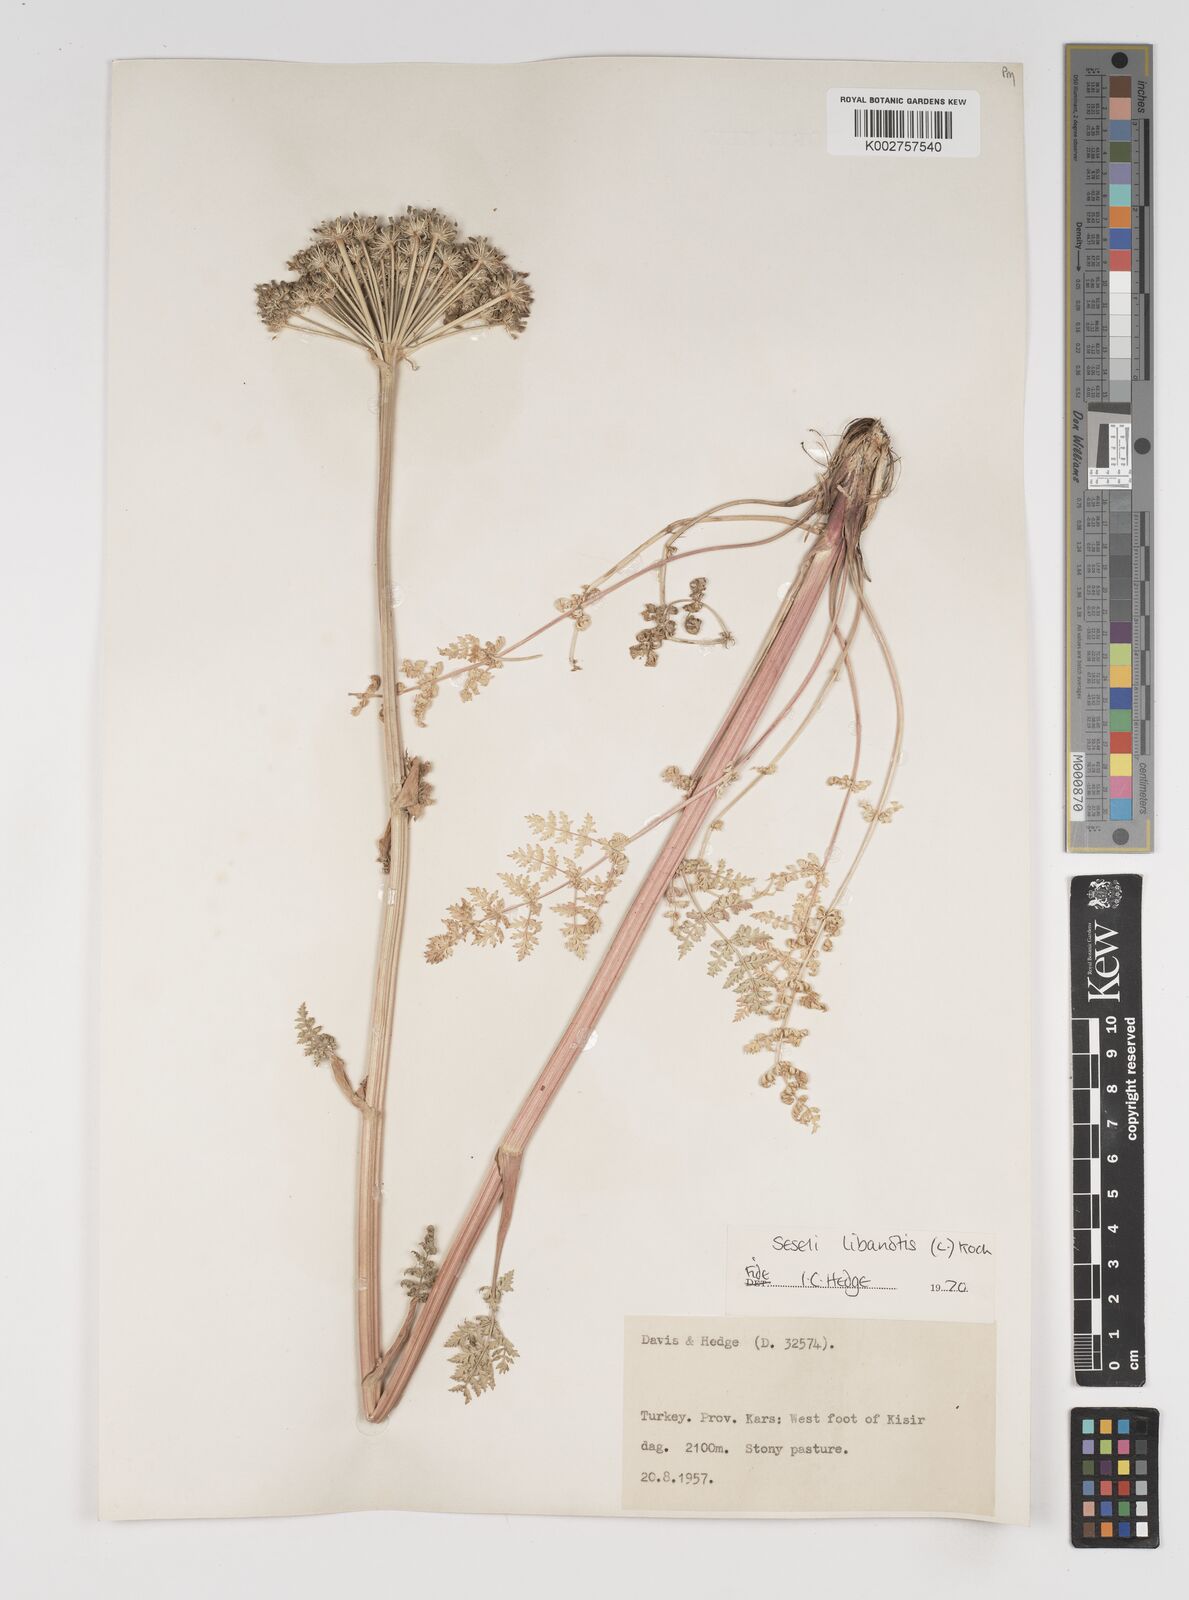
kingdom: Plantae
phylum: Tracheophyta
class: Magnoliopsida
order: Apiales
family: Apiaceae
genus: Seseli
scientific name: Seseli libanotis
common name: Mooncarrot
